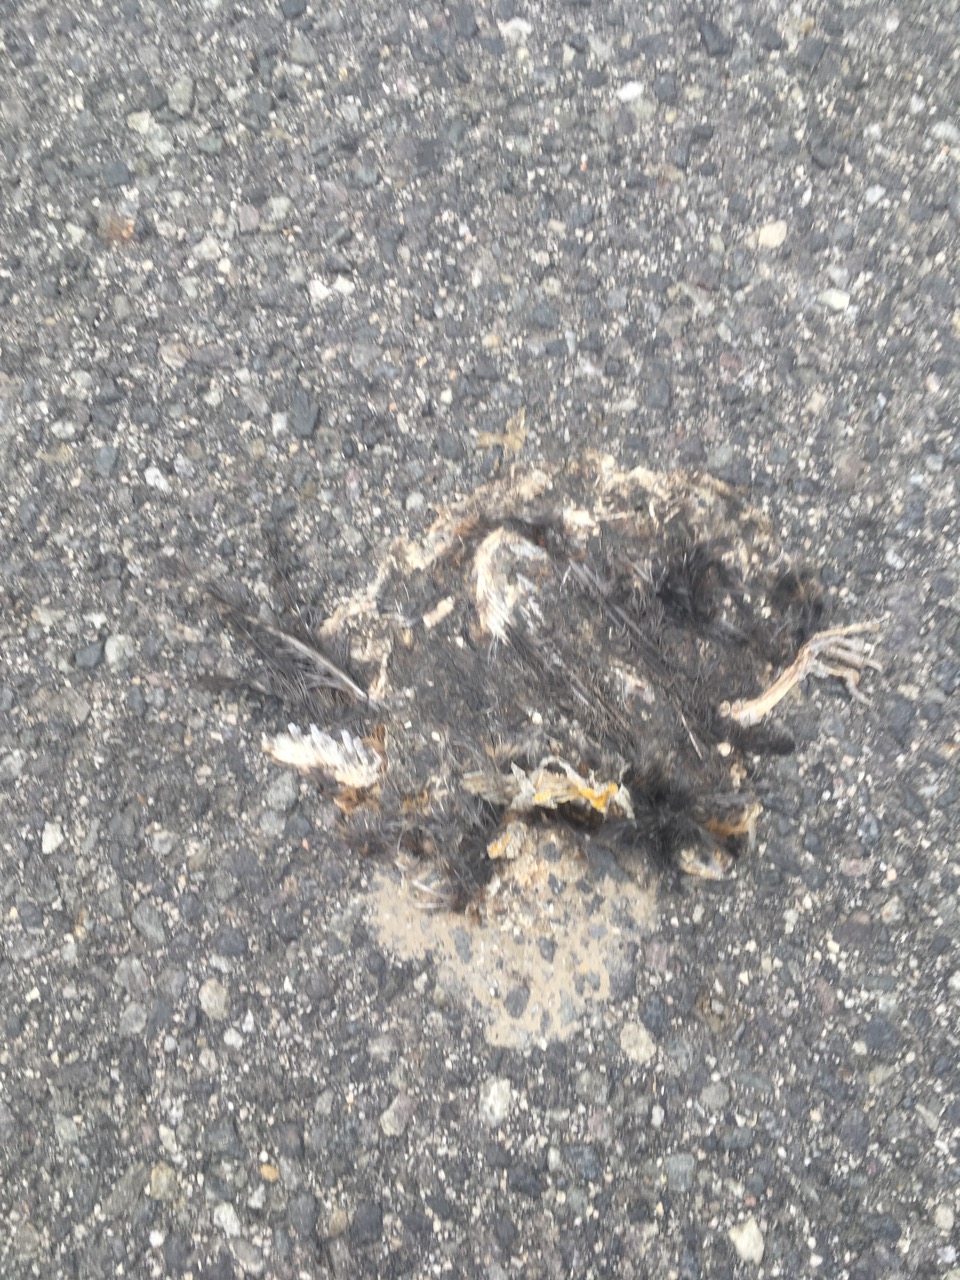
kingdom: Animalia
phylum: Chordata
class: Aves
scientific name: Aves
